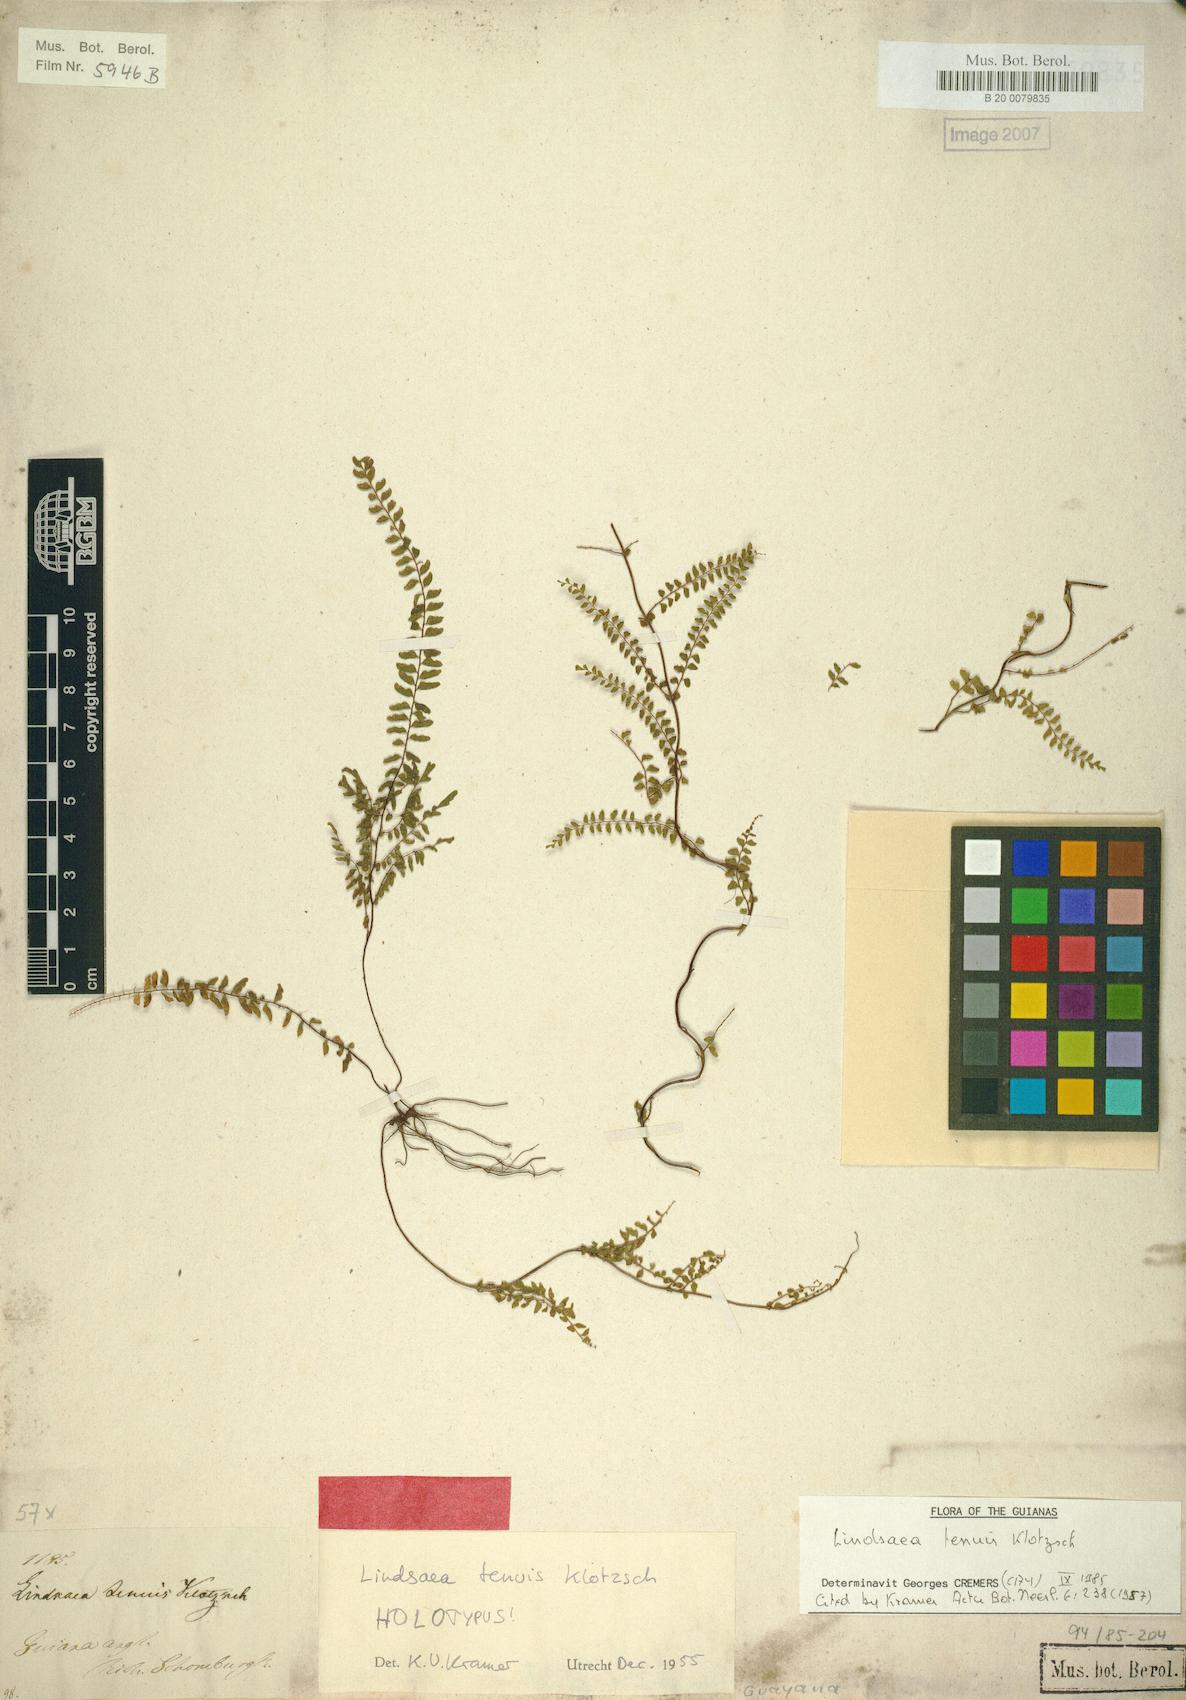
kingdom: Plantae
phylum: Tracheophyta
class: Polypodiopsida
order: Polypodiales
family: Lindsaeaceae
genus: Lindsaea
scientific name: Lindsaea tenuis
